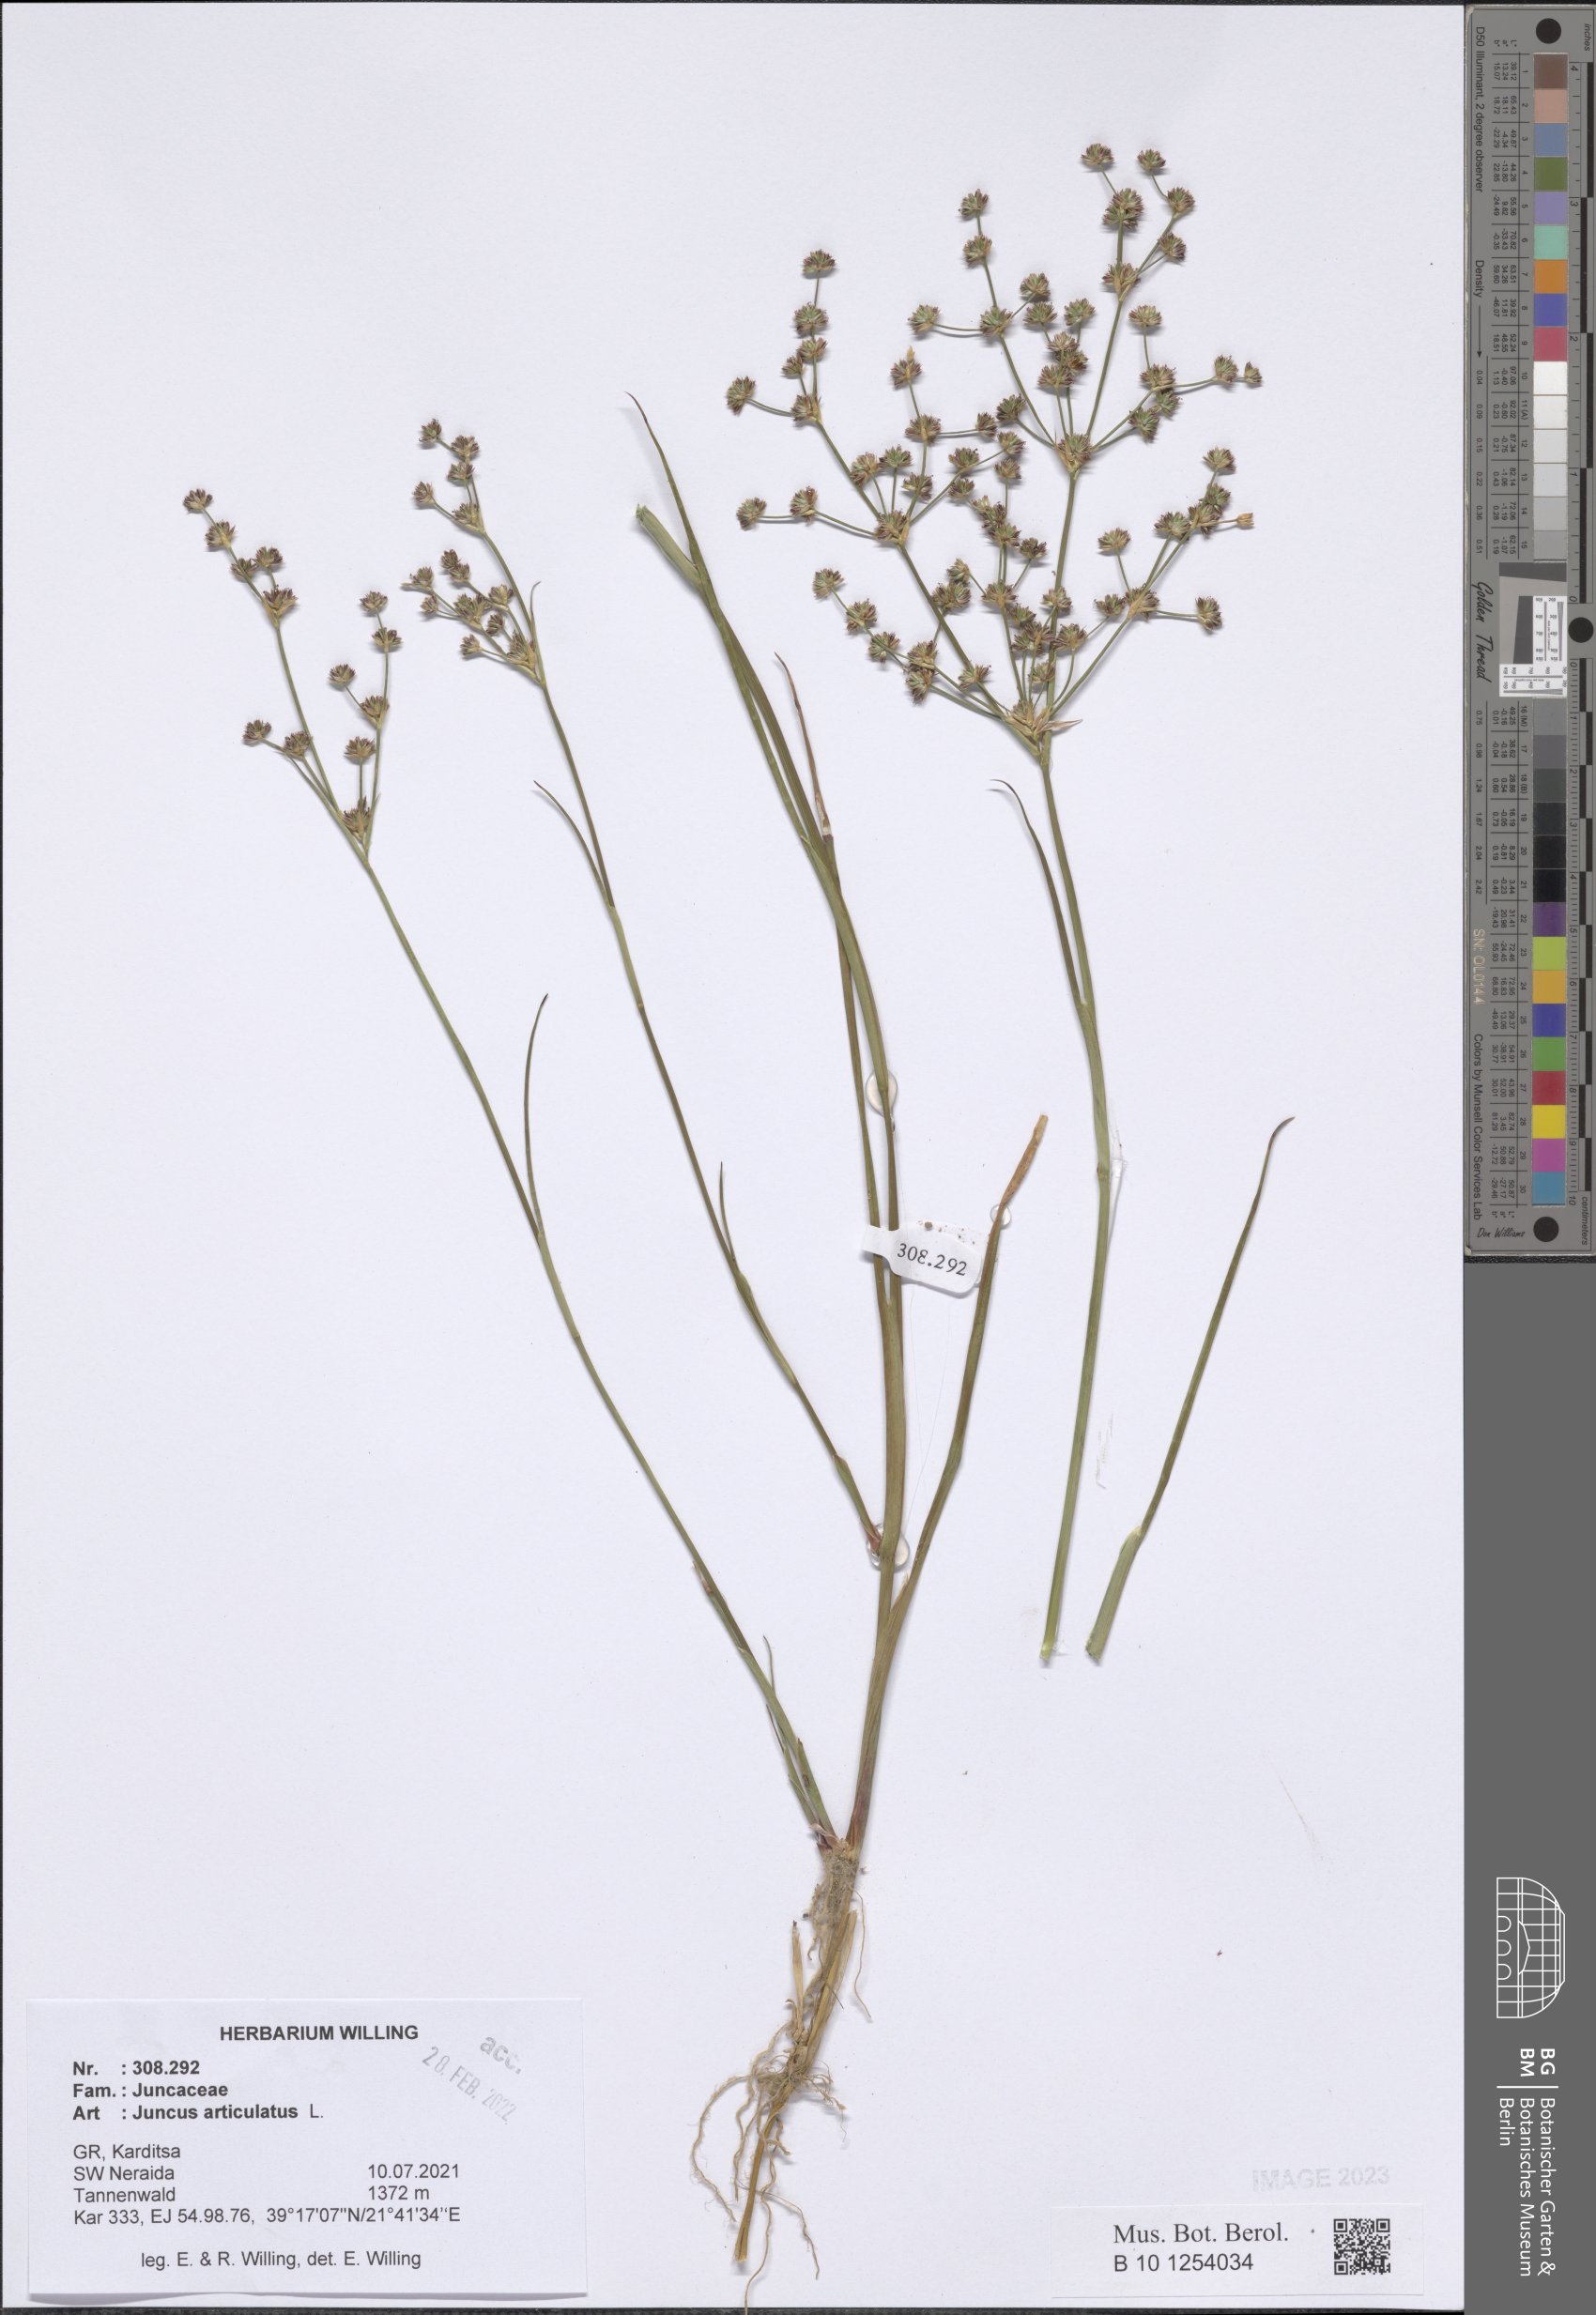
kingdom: Plantae
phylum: Tracheophyta
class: Liliopsida
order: Poales
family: Juncaceae
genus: Juncus
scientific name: Juncus articulatus
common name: Jointed rush
